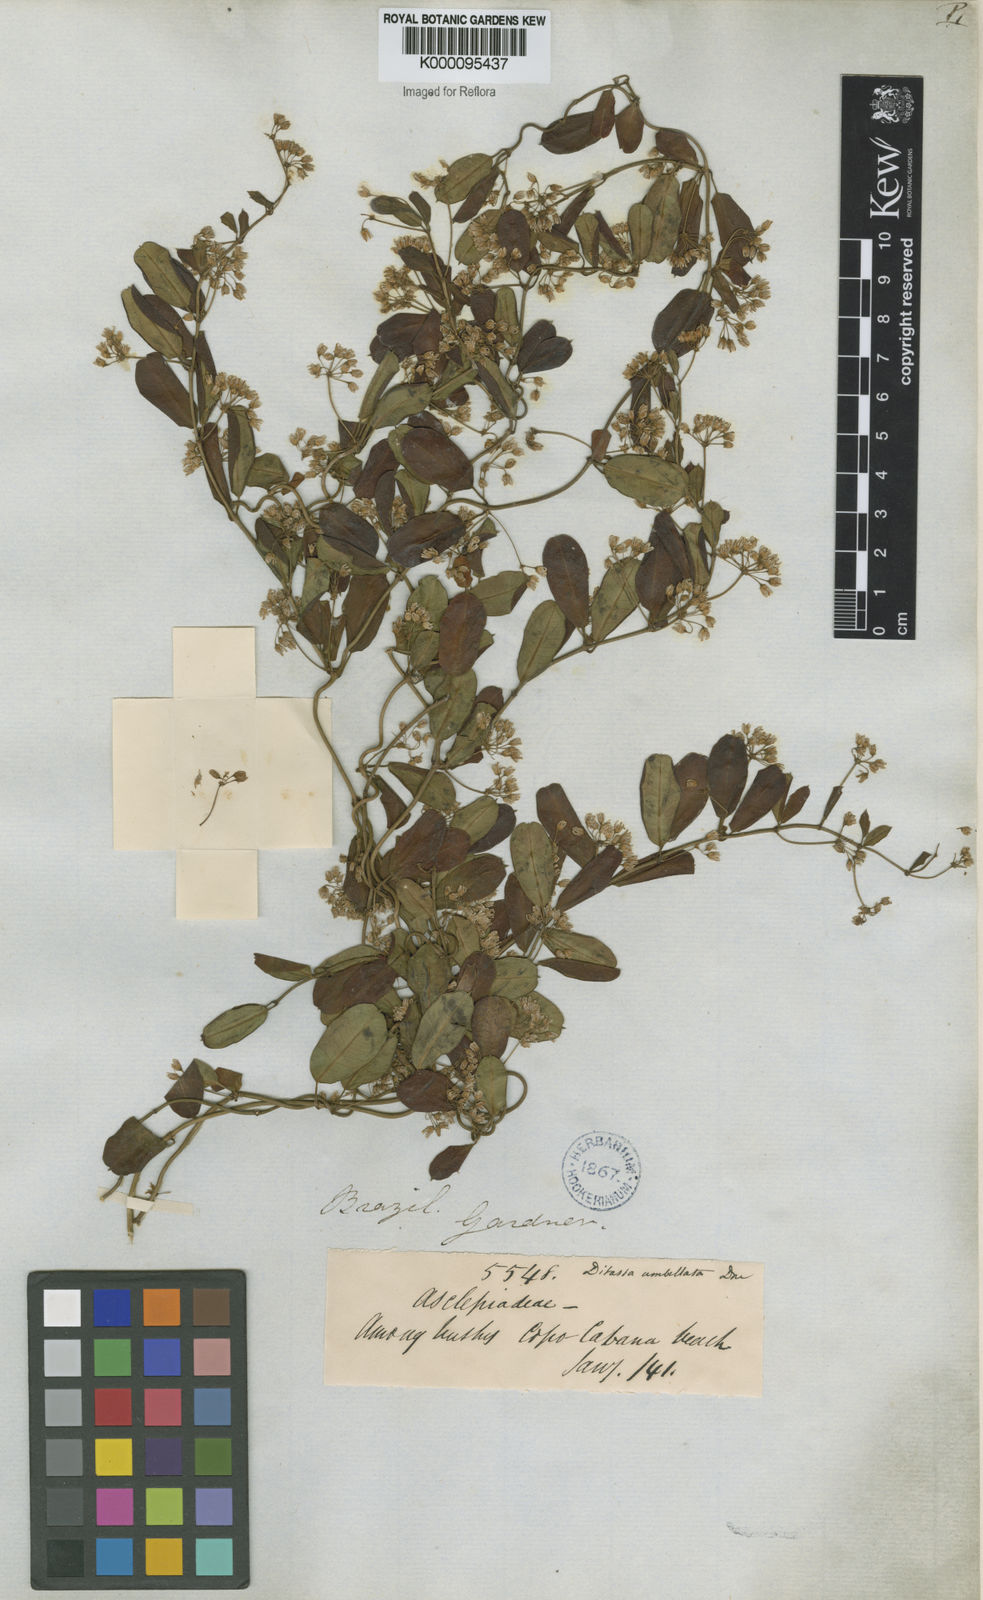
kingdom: Plantae
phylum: Tracheophyta
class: Magnoliopsida
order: Gentianales
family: Apocynaceae
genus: Ditassa
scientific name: Ditassa banksii
